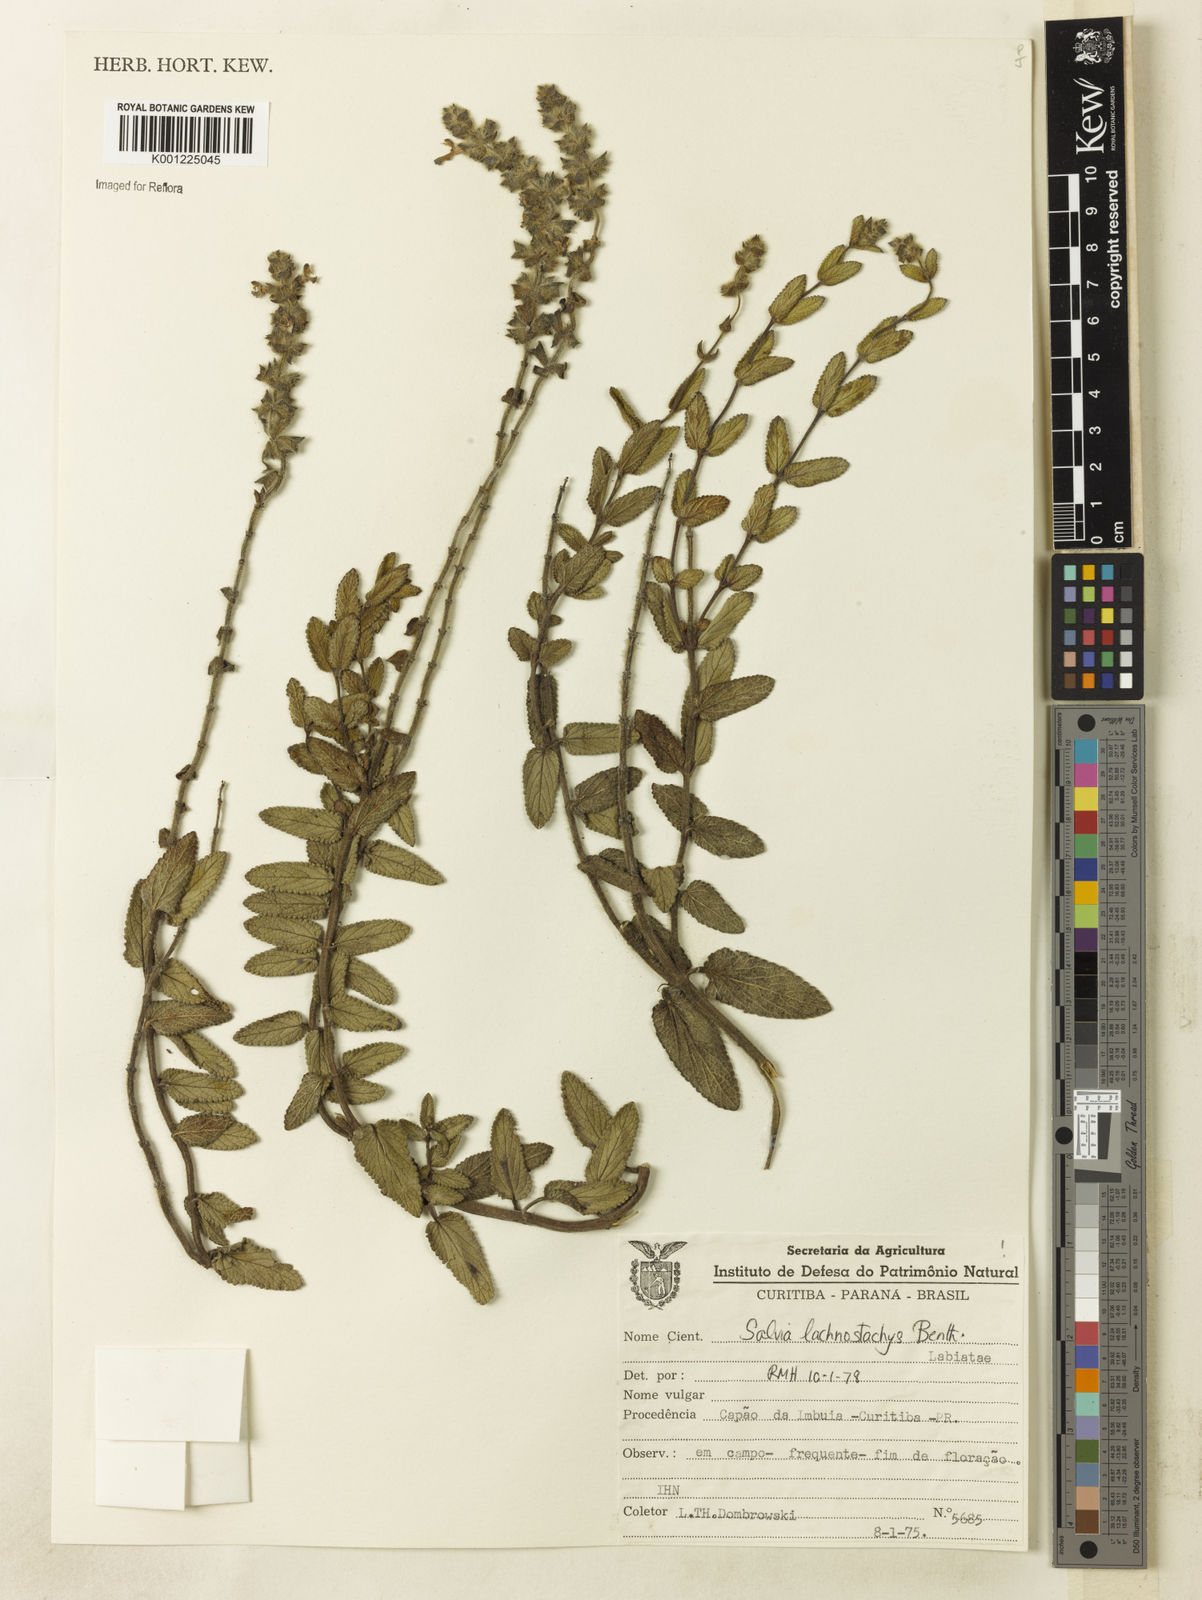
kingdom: Plantae
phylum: Tracheophyta
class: Magnoliopsida
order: Lamiales
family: Lamiaceae
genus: Salvia
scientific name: Salvia lachnostachys
